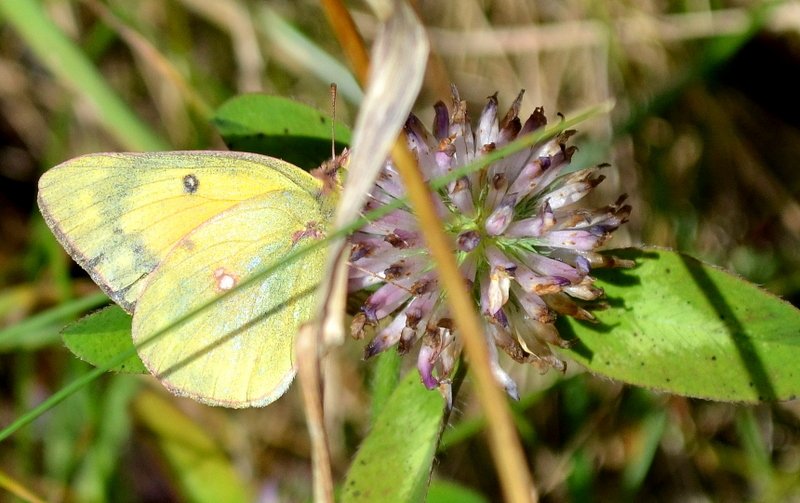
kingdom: Animalia
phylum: Arthropoda
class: Insecta
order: Lepidoptera
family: Pieridae
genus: Colias
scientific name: Colias eurytheme
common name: Orange Sulphur
